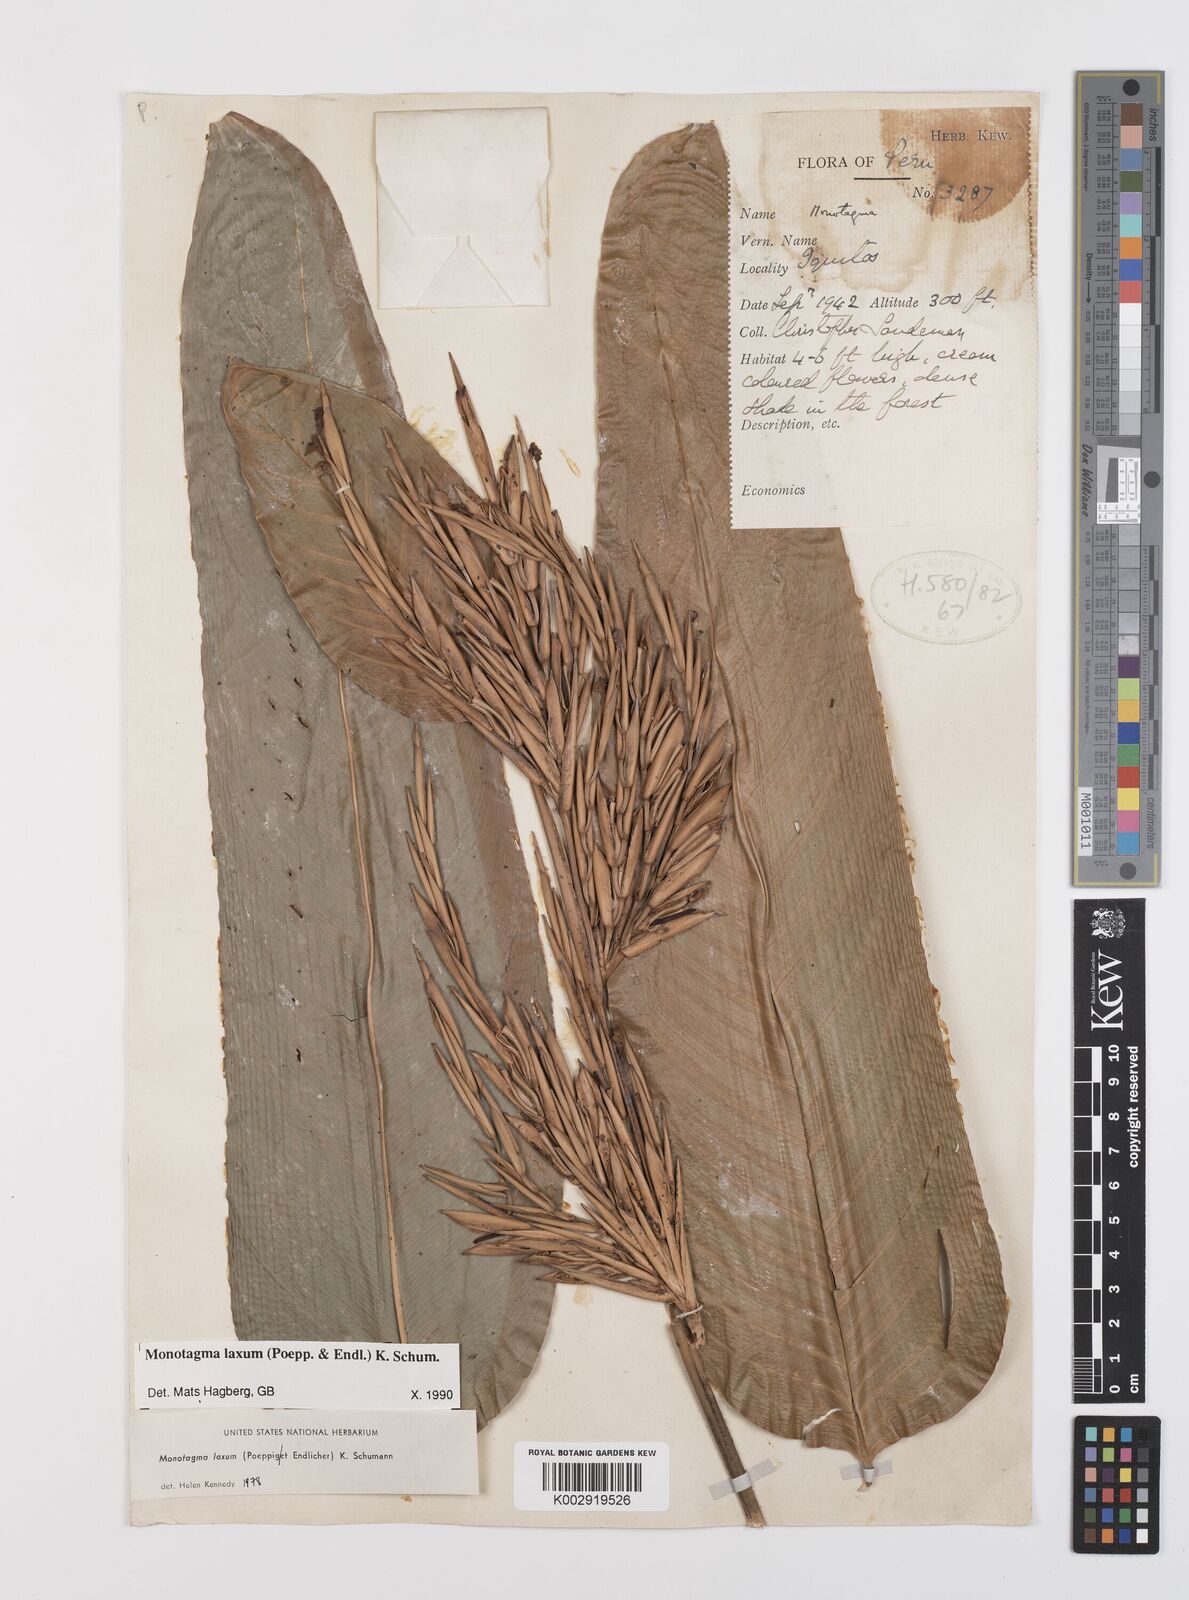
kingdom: Plantae
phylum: Tracheophyta
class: Liliopsida
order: Zingiberales
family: Marantaceae
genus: Monotagma
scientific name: Monotagma laxum
